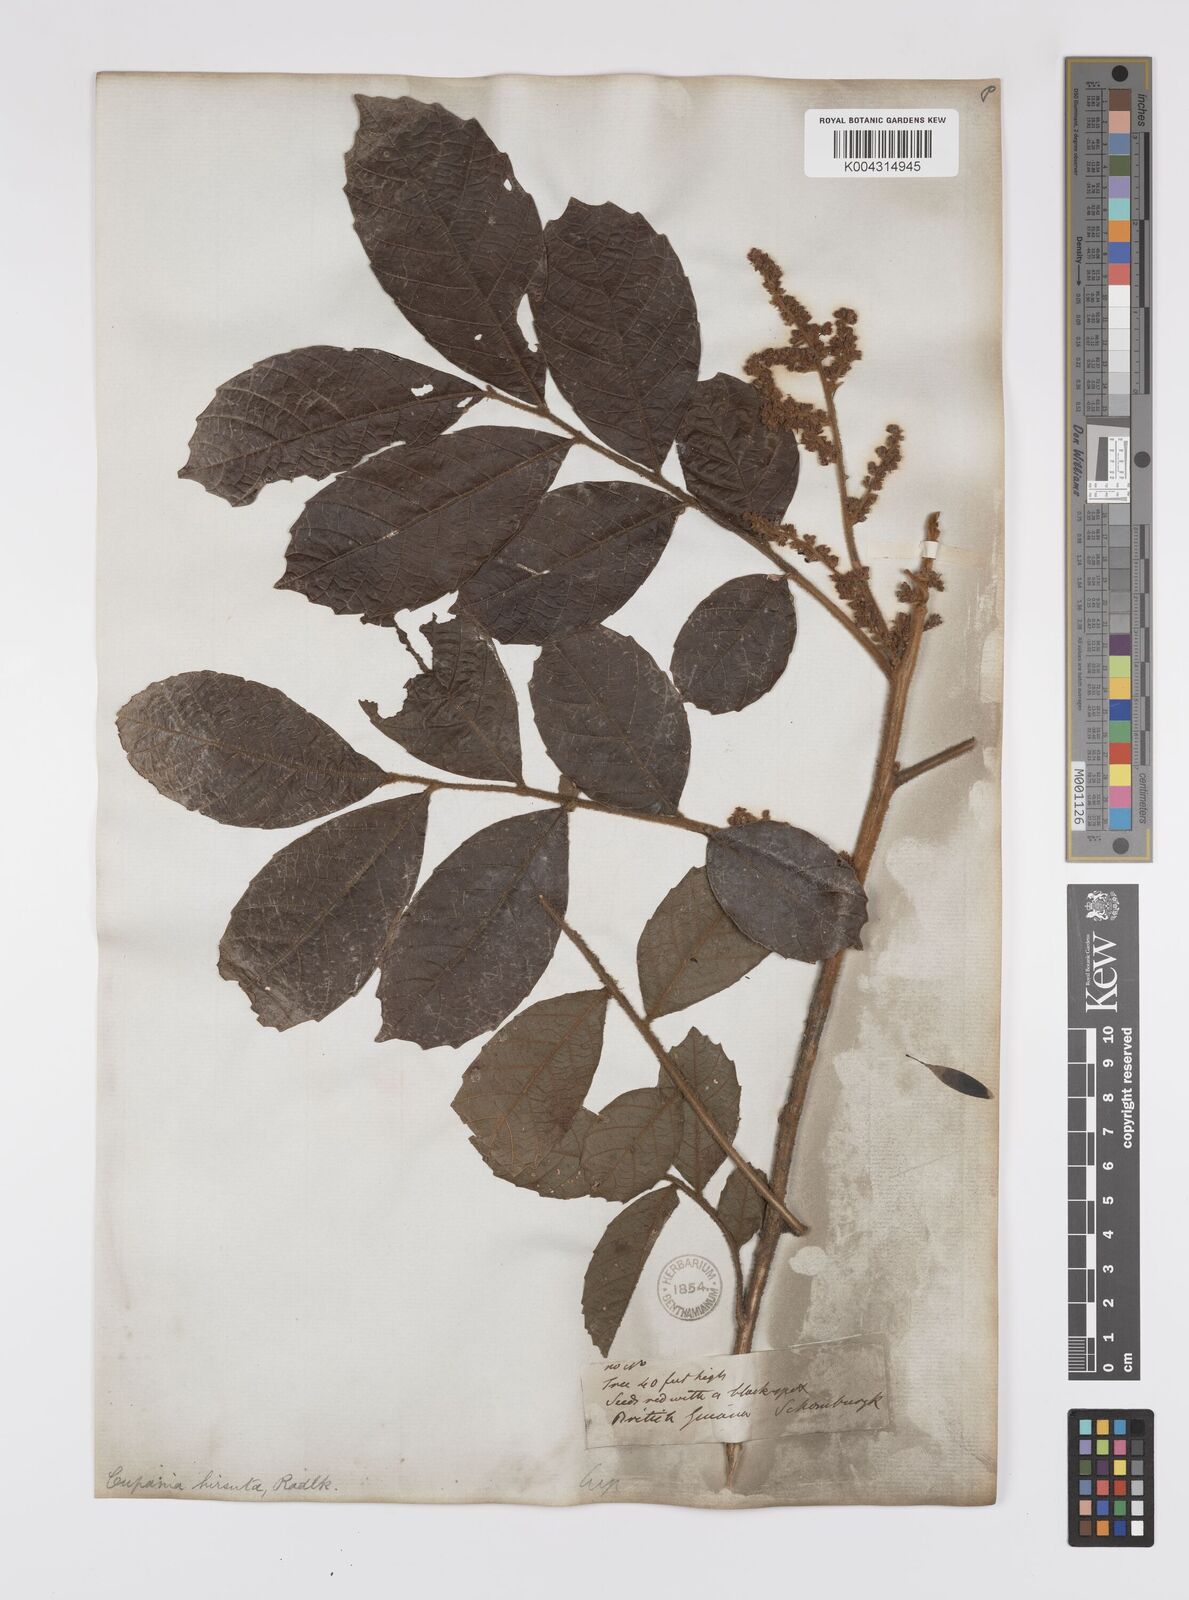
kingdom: Plantae
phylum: Tracheophyta
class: Magnoliopsida
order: Sapindales
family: Sapindaceae
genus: Cupania
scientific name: Cupania hirsuta
